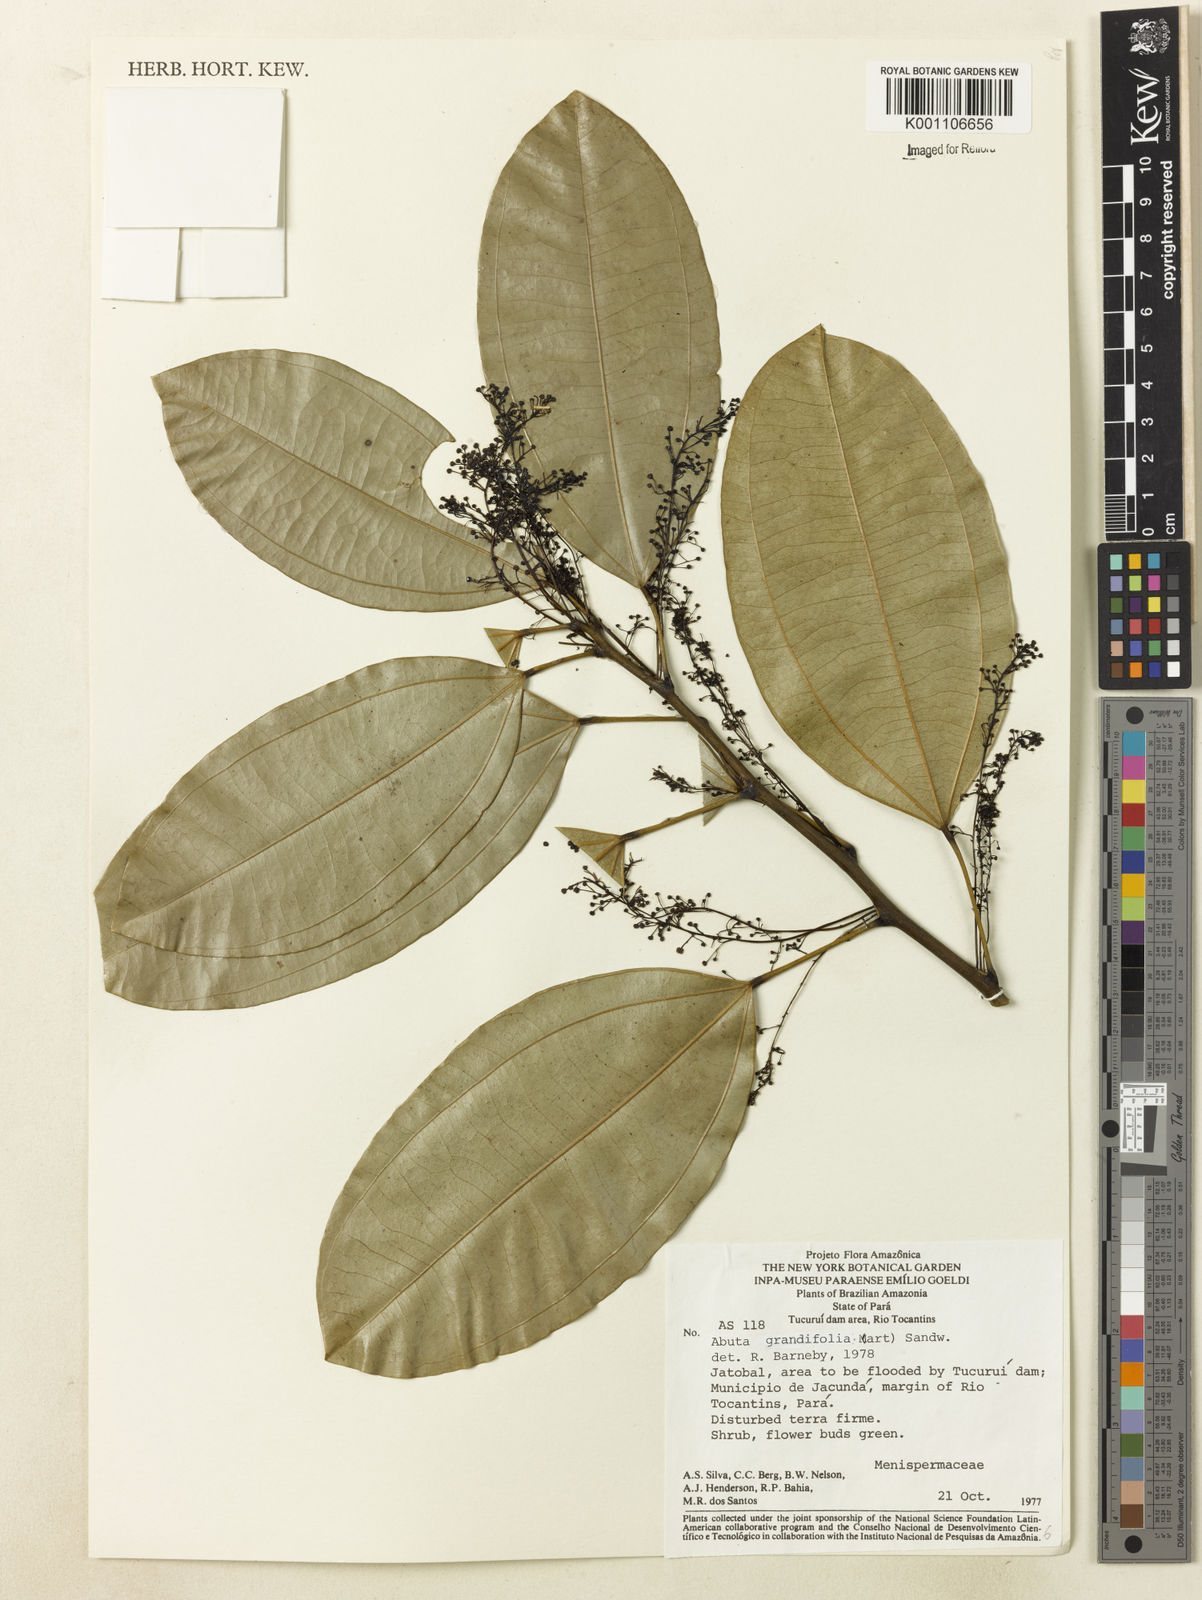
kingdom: Plantae
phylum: Tracheophyta
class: Magnoliopsida
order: Ranunculales
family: Menispermaceae
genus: Abuta
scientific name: Abuta grandifolia
